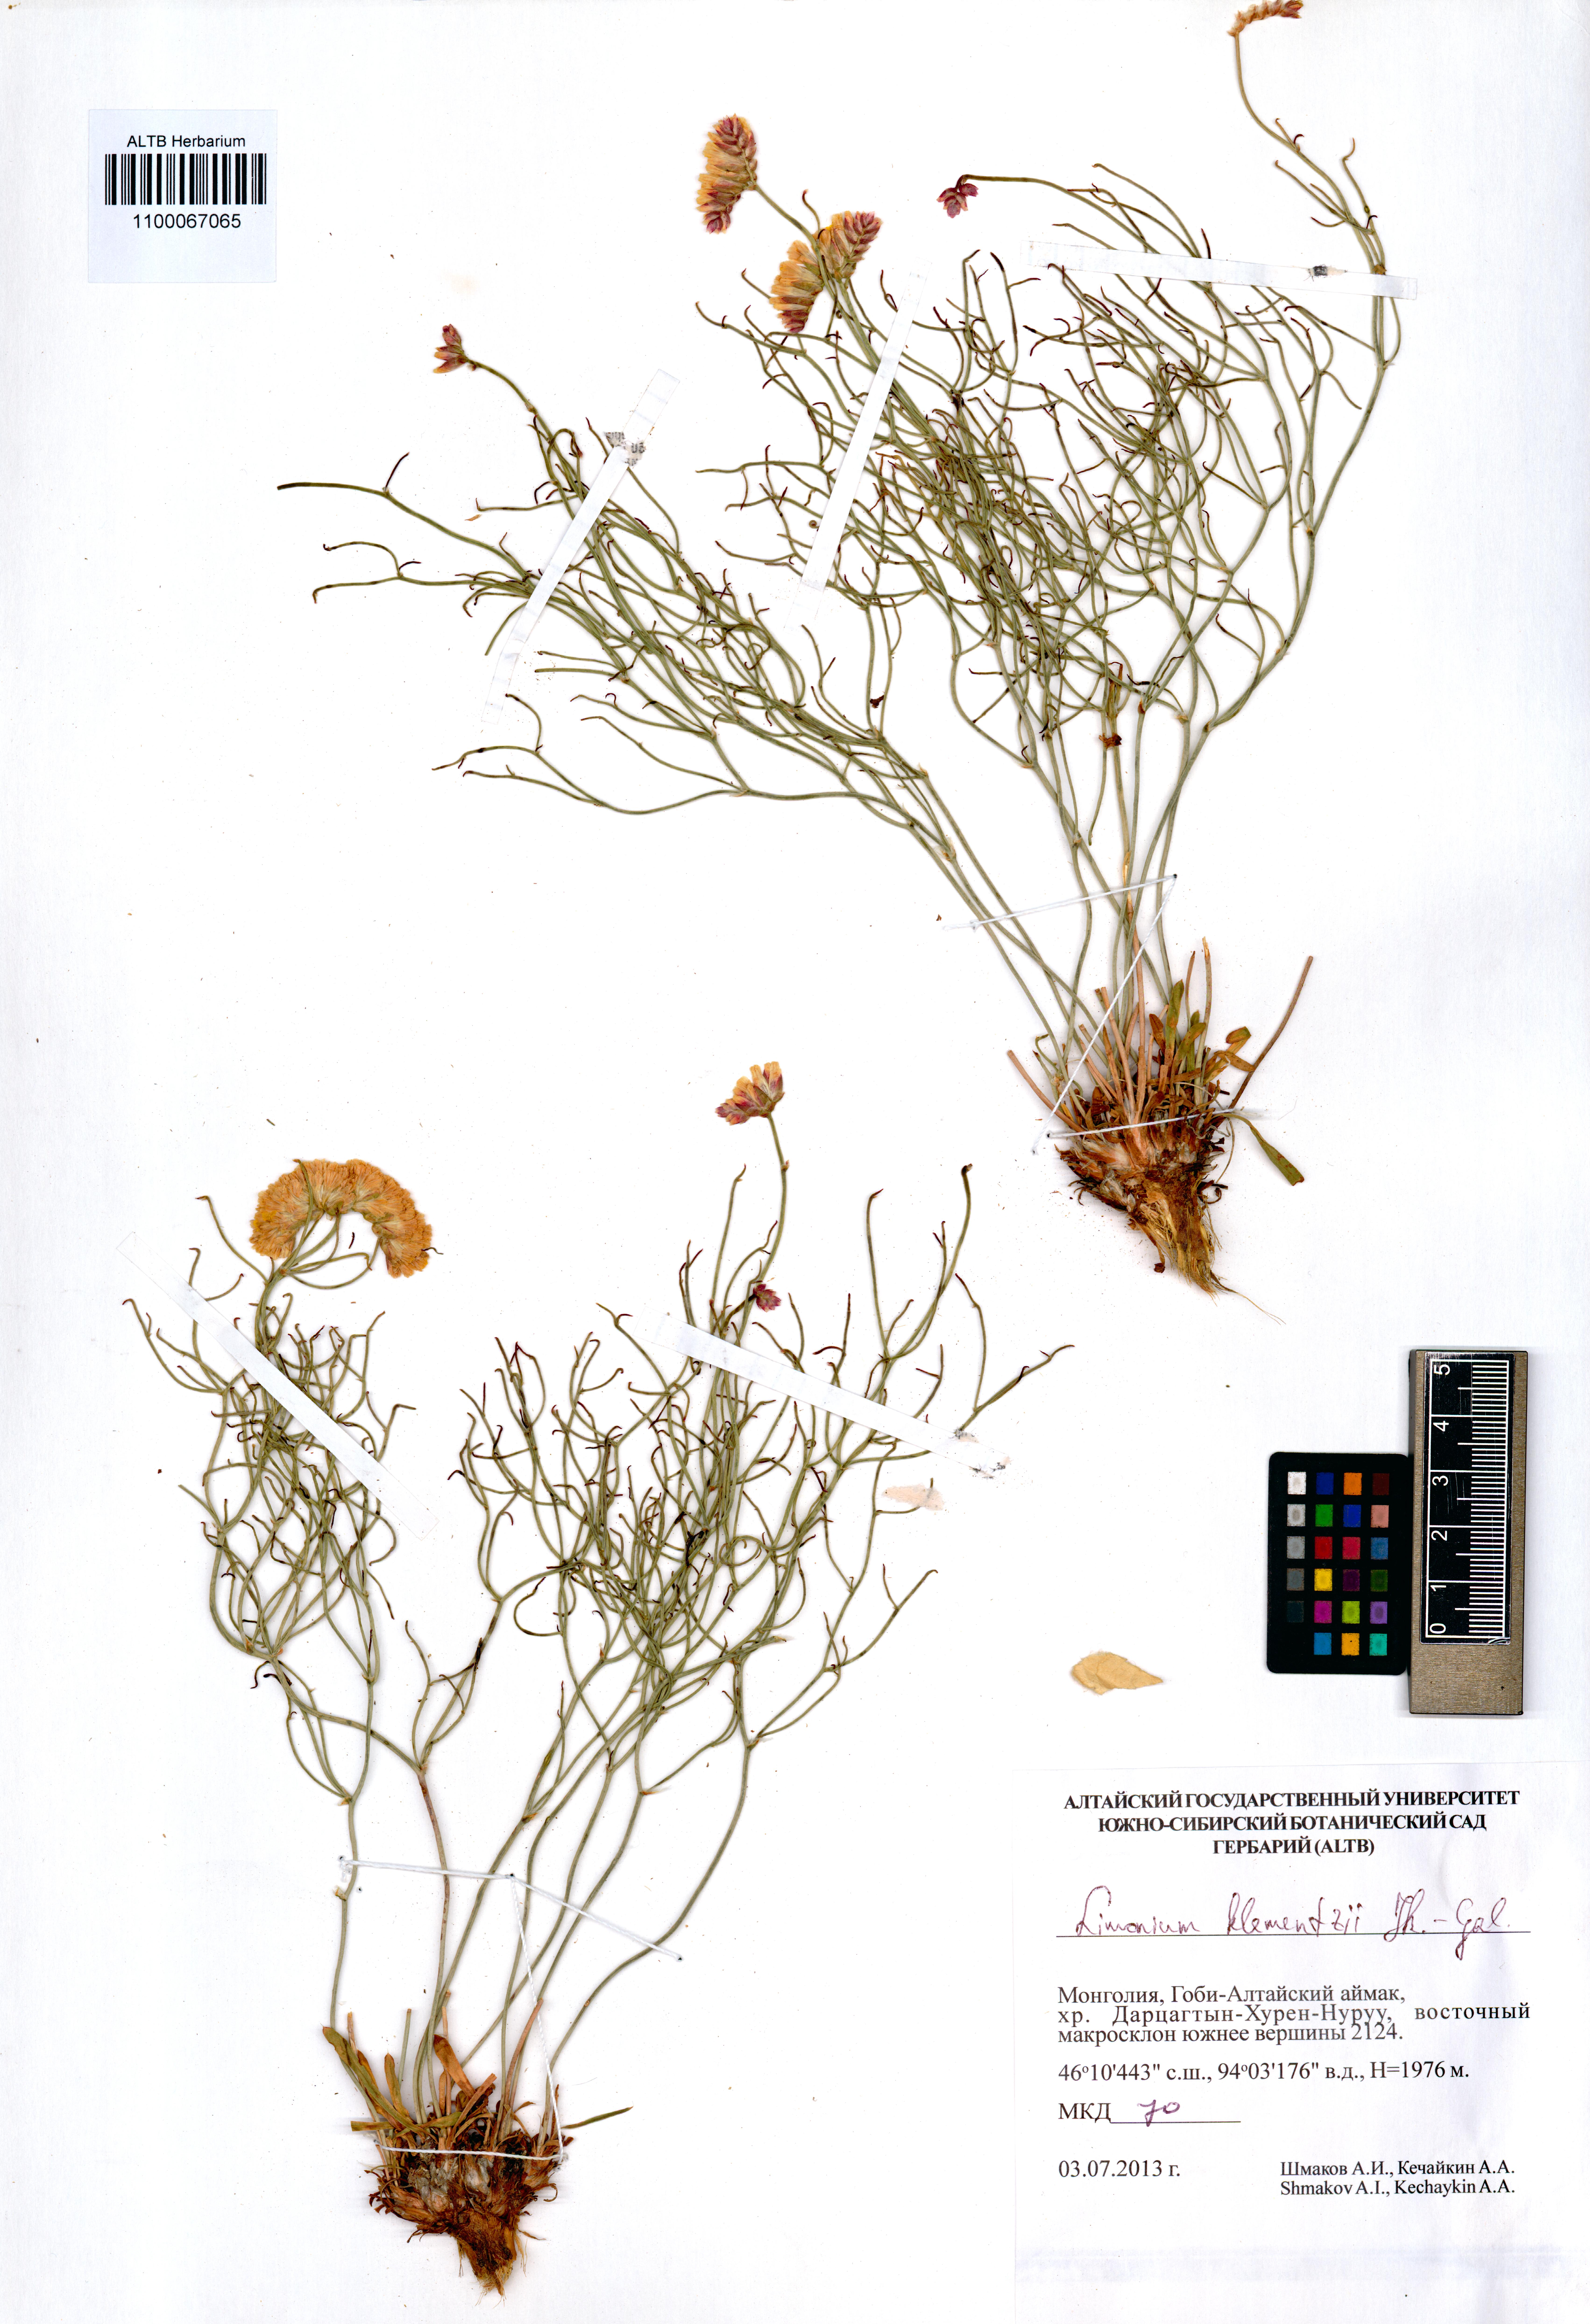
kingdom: Plantae
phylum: Tracheophyta
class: Magnoliopsida
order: Caryophyllales
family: Plumbaginaceae
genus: Limonium
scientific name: Limonium klementzii
